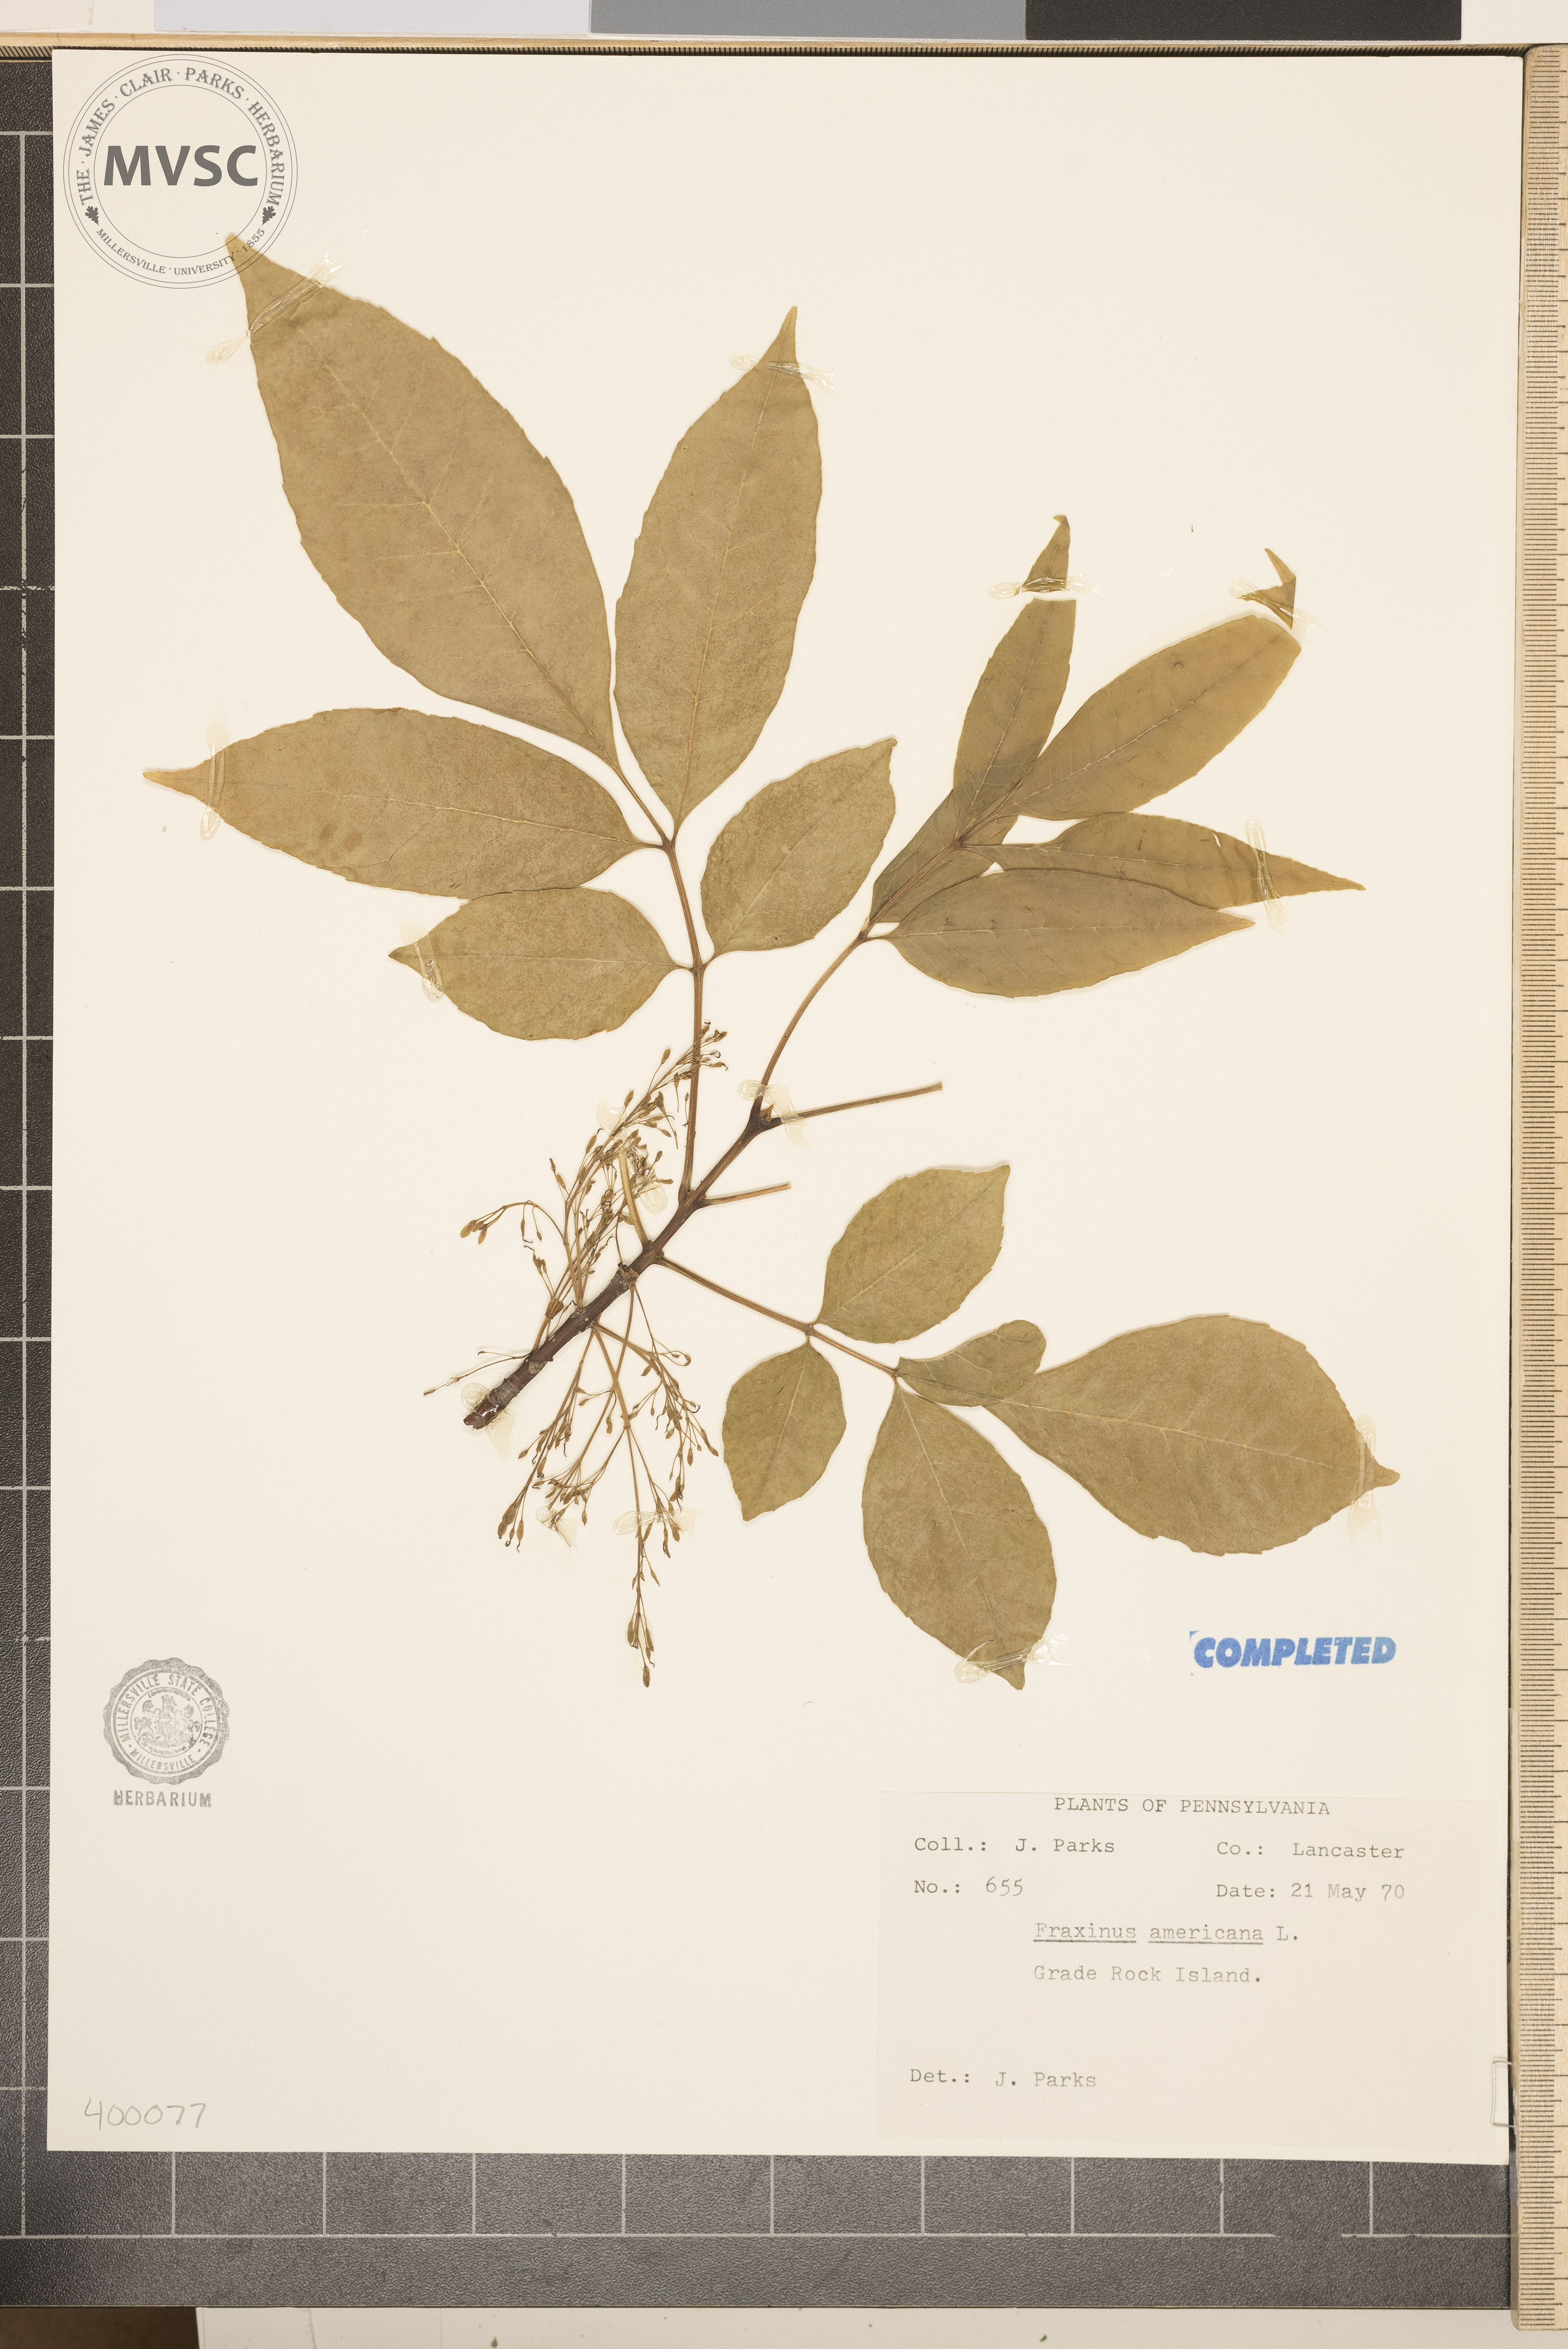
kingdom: Plantae
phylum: Tracheophyta
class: Magnoliopsida
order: Lamiales
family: Oleaceae
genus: Fraxinus
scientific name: Fraxinus americana
